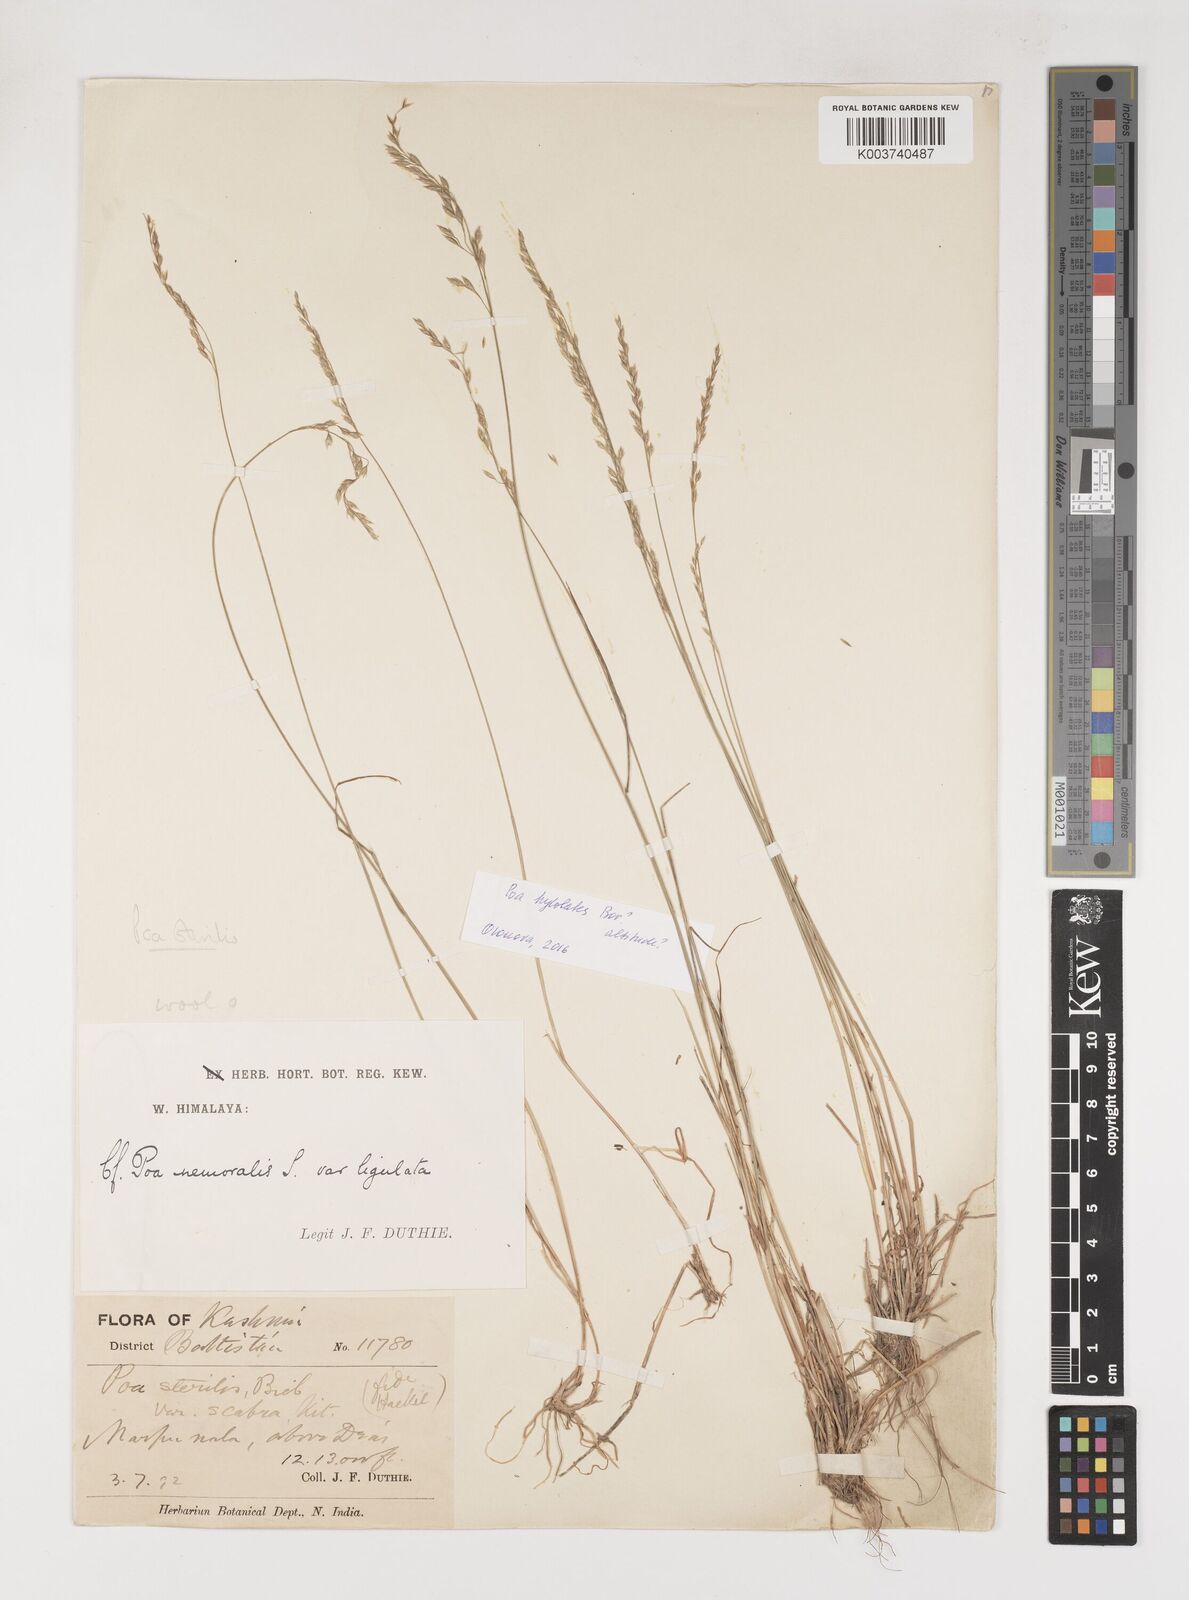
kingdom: Plantae
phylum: Tracheophyta
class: Liliopsida
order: Poales
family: Poaceae
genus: Poa
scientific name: Poa sterilis
